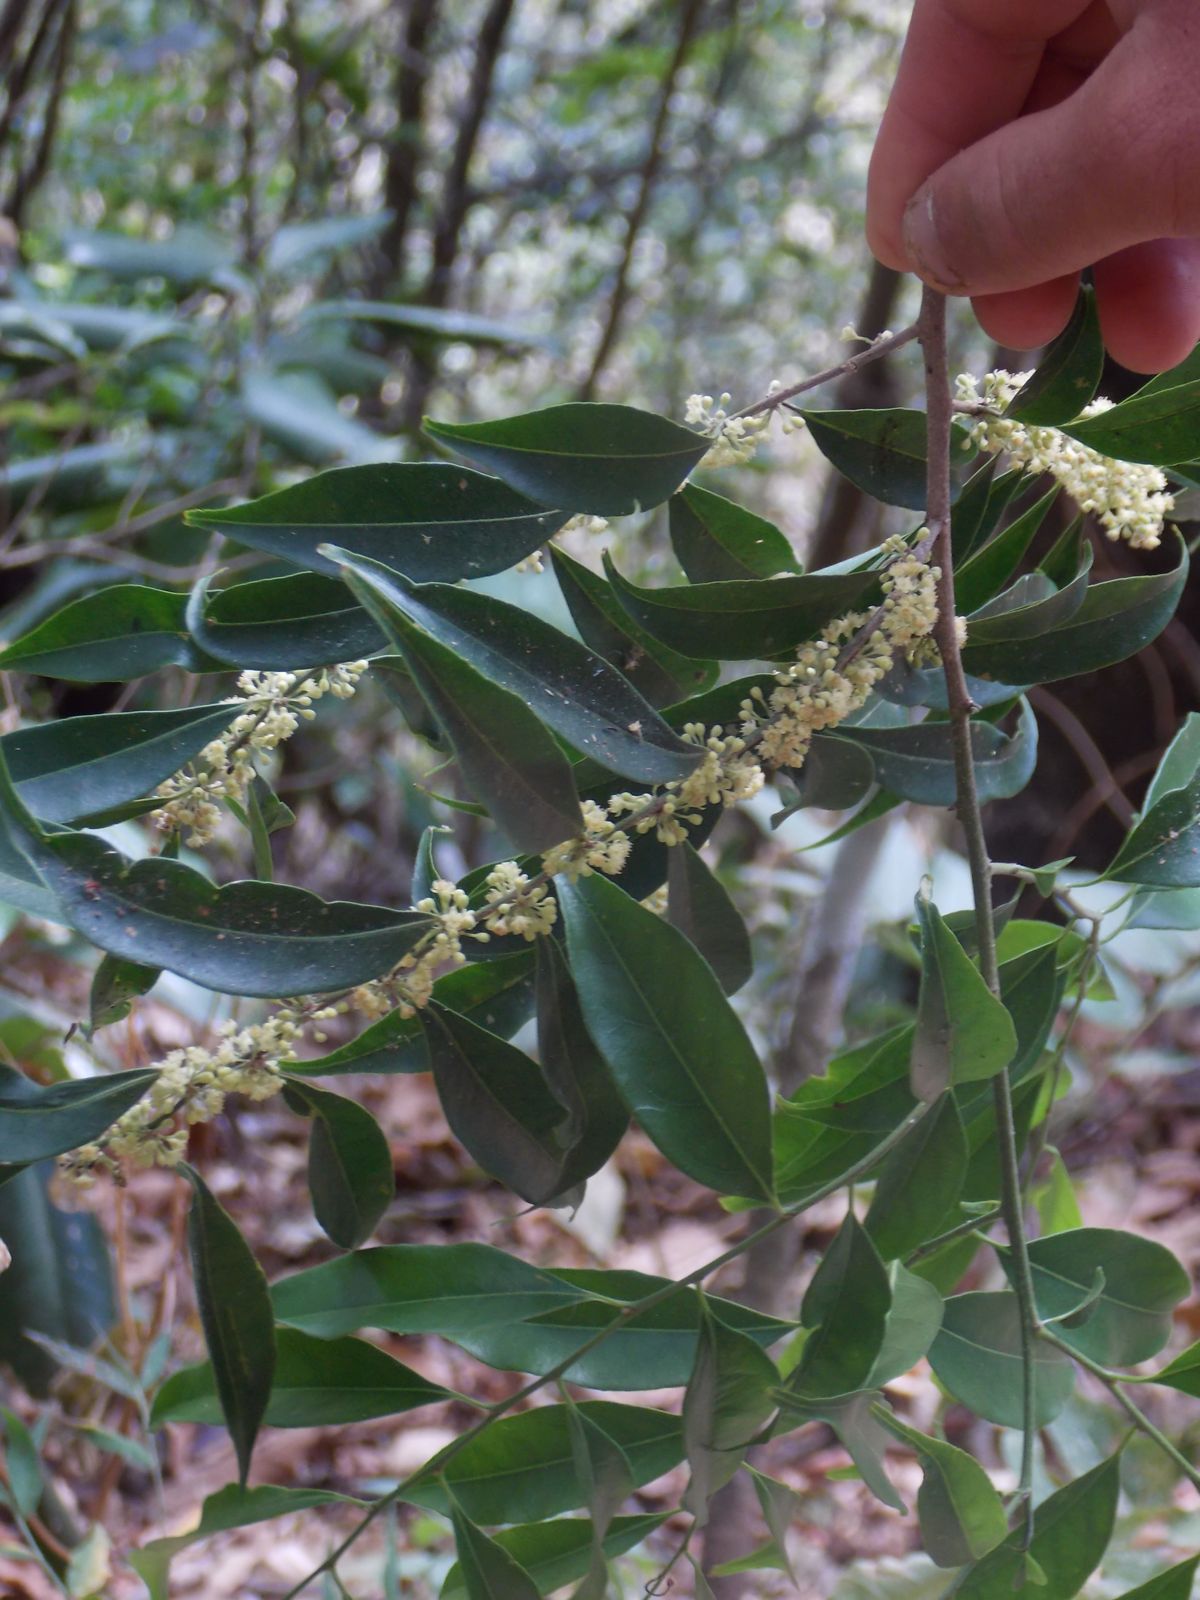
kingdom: Plantae
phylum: Tracheophyta
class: Magnoliopsida
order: Malpighiales
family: Salicaceae
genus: Casearia
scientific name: Casearia sylvestris
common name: Wild sage
